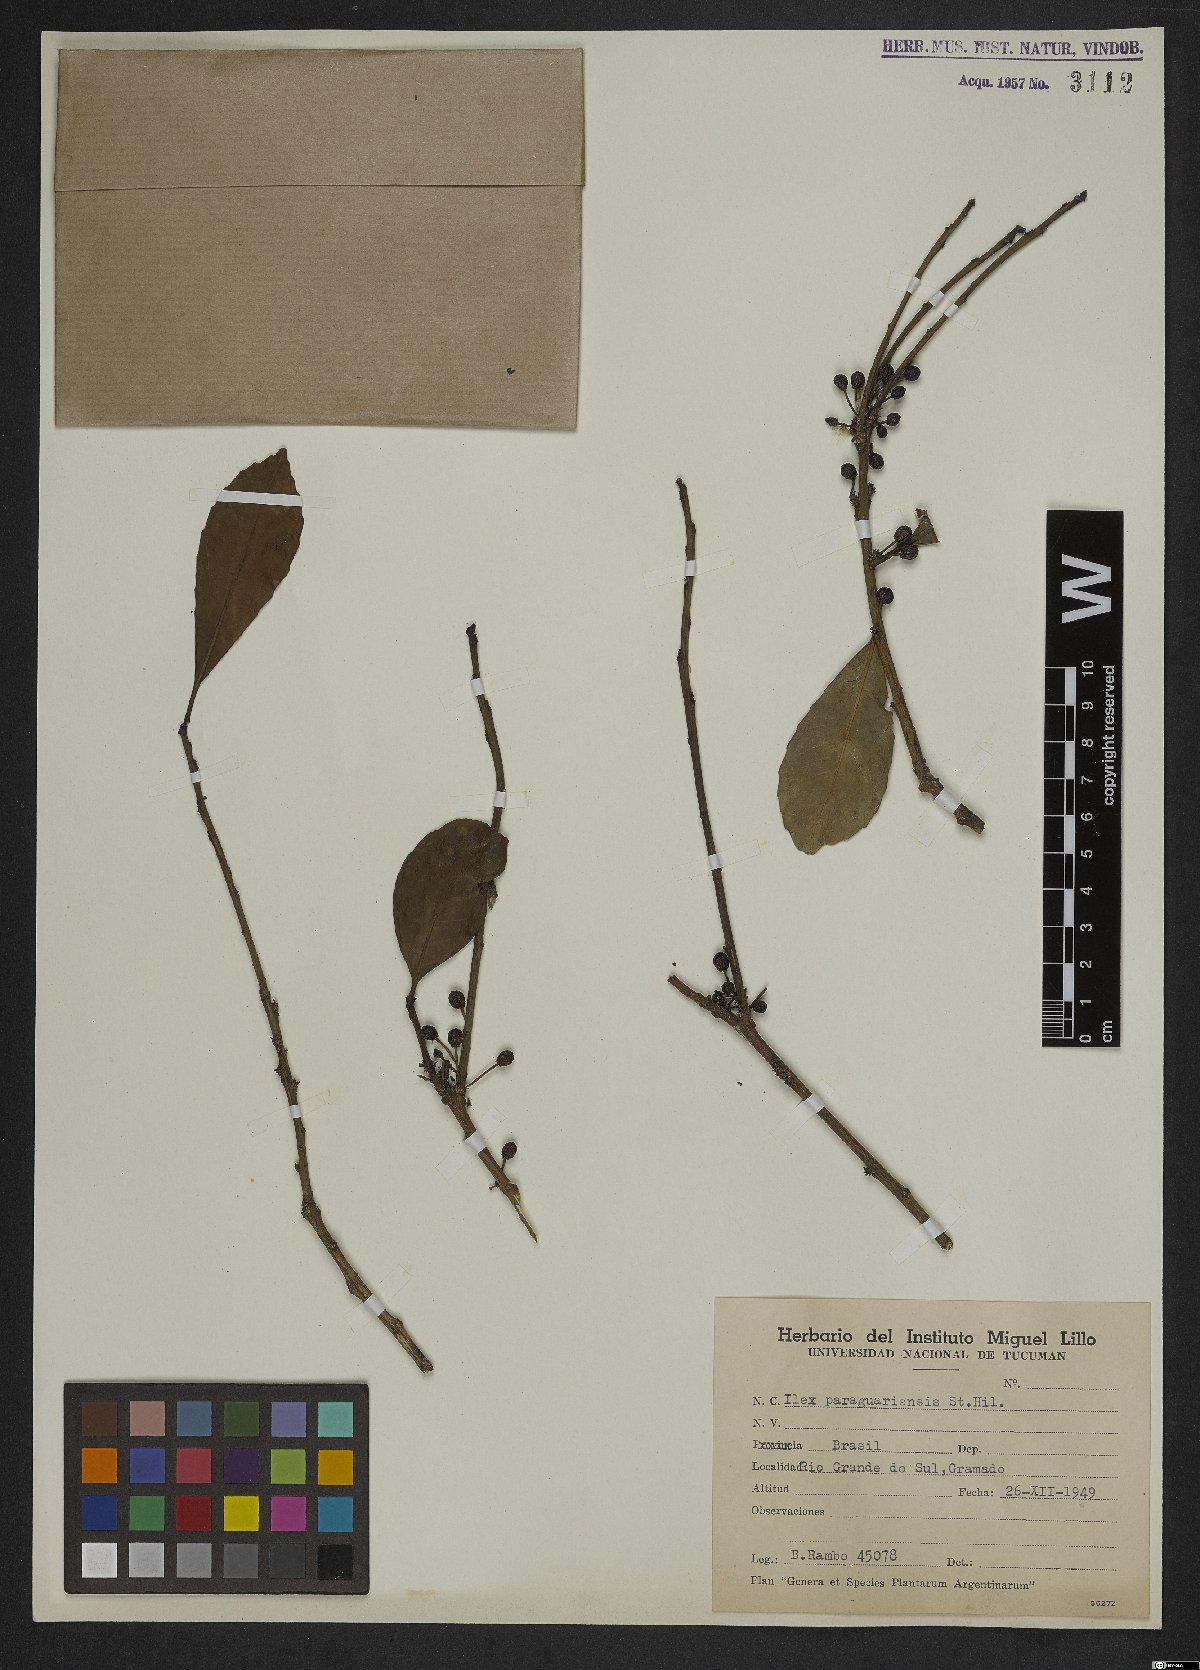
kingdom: Plantae
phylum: Tracheophyta
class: Magnoliopsida
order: Aquifoliales
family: Aquifoliaceae
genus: Ilex
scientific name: Ilex paraguariensis
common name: Paraguay tea
